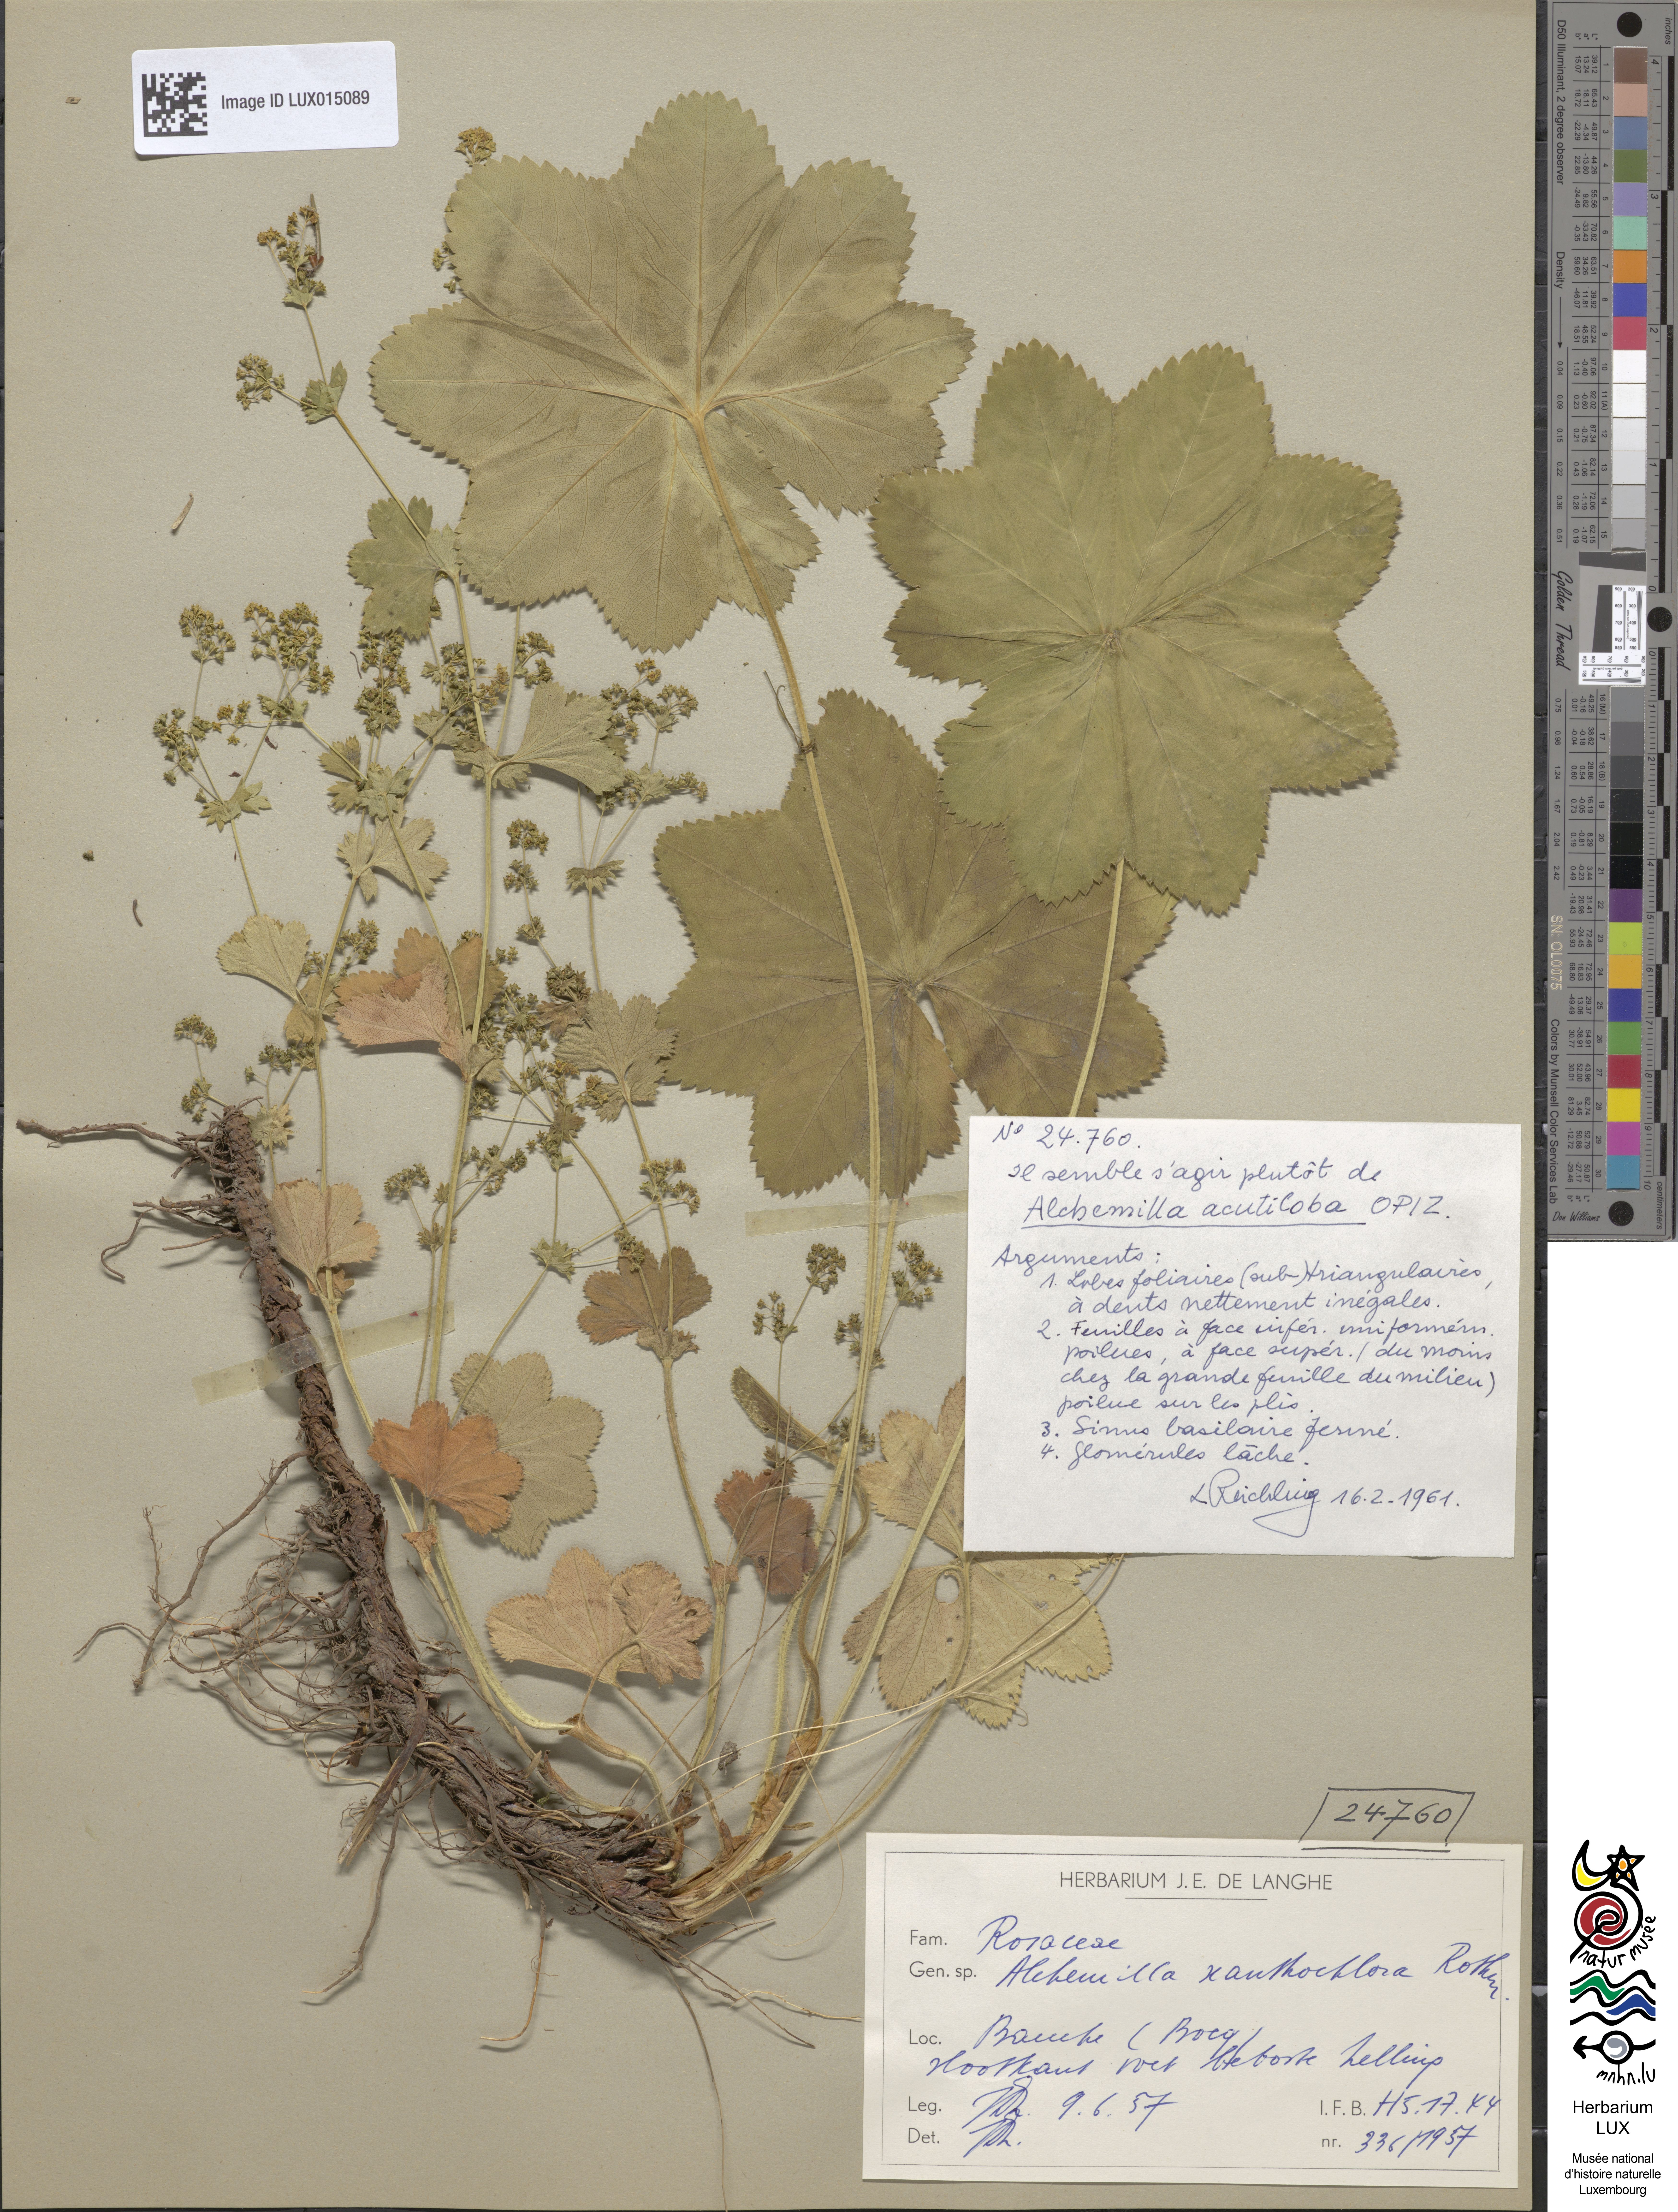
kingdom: Plantae
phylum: Tracheophyta
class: Magnoliopsida
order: Rosales
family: Rosaceae
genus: Alchemilla
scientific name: Alchemilla vulgaris
